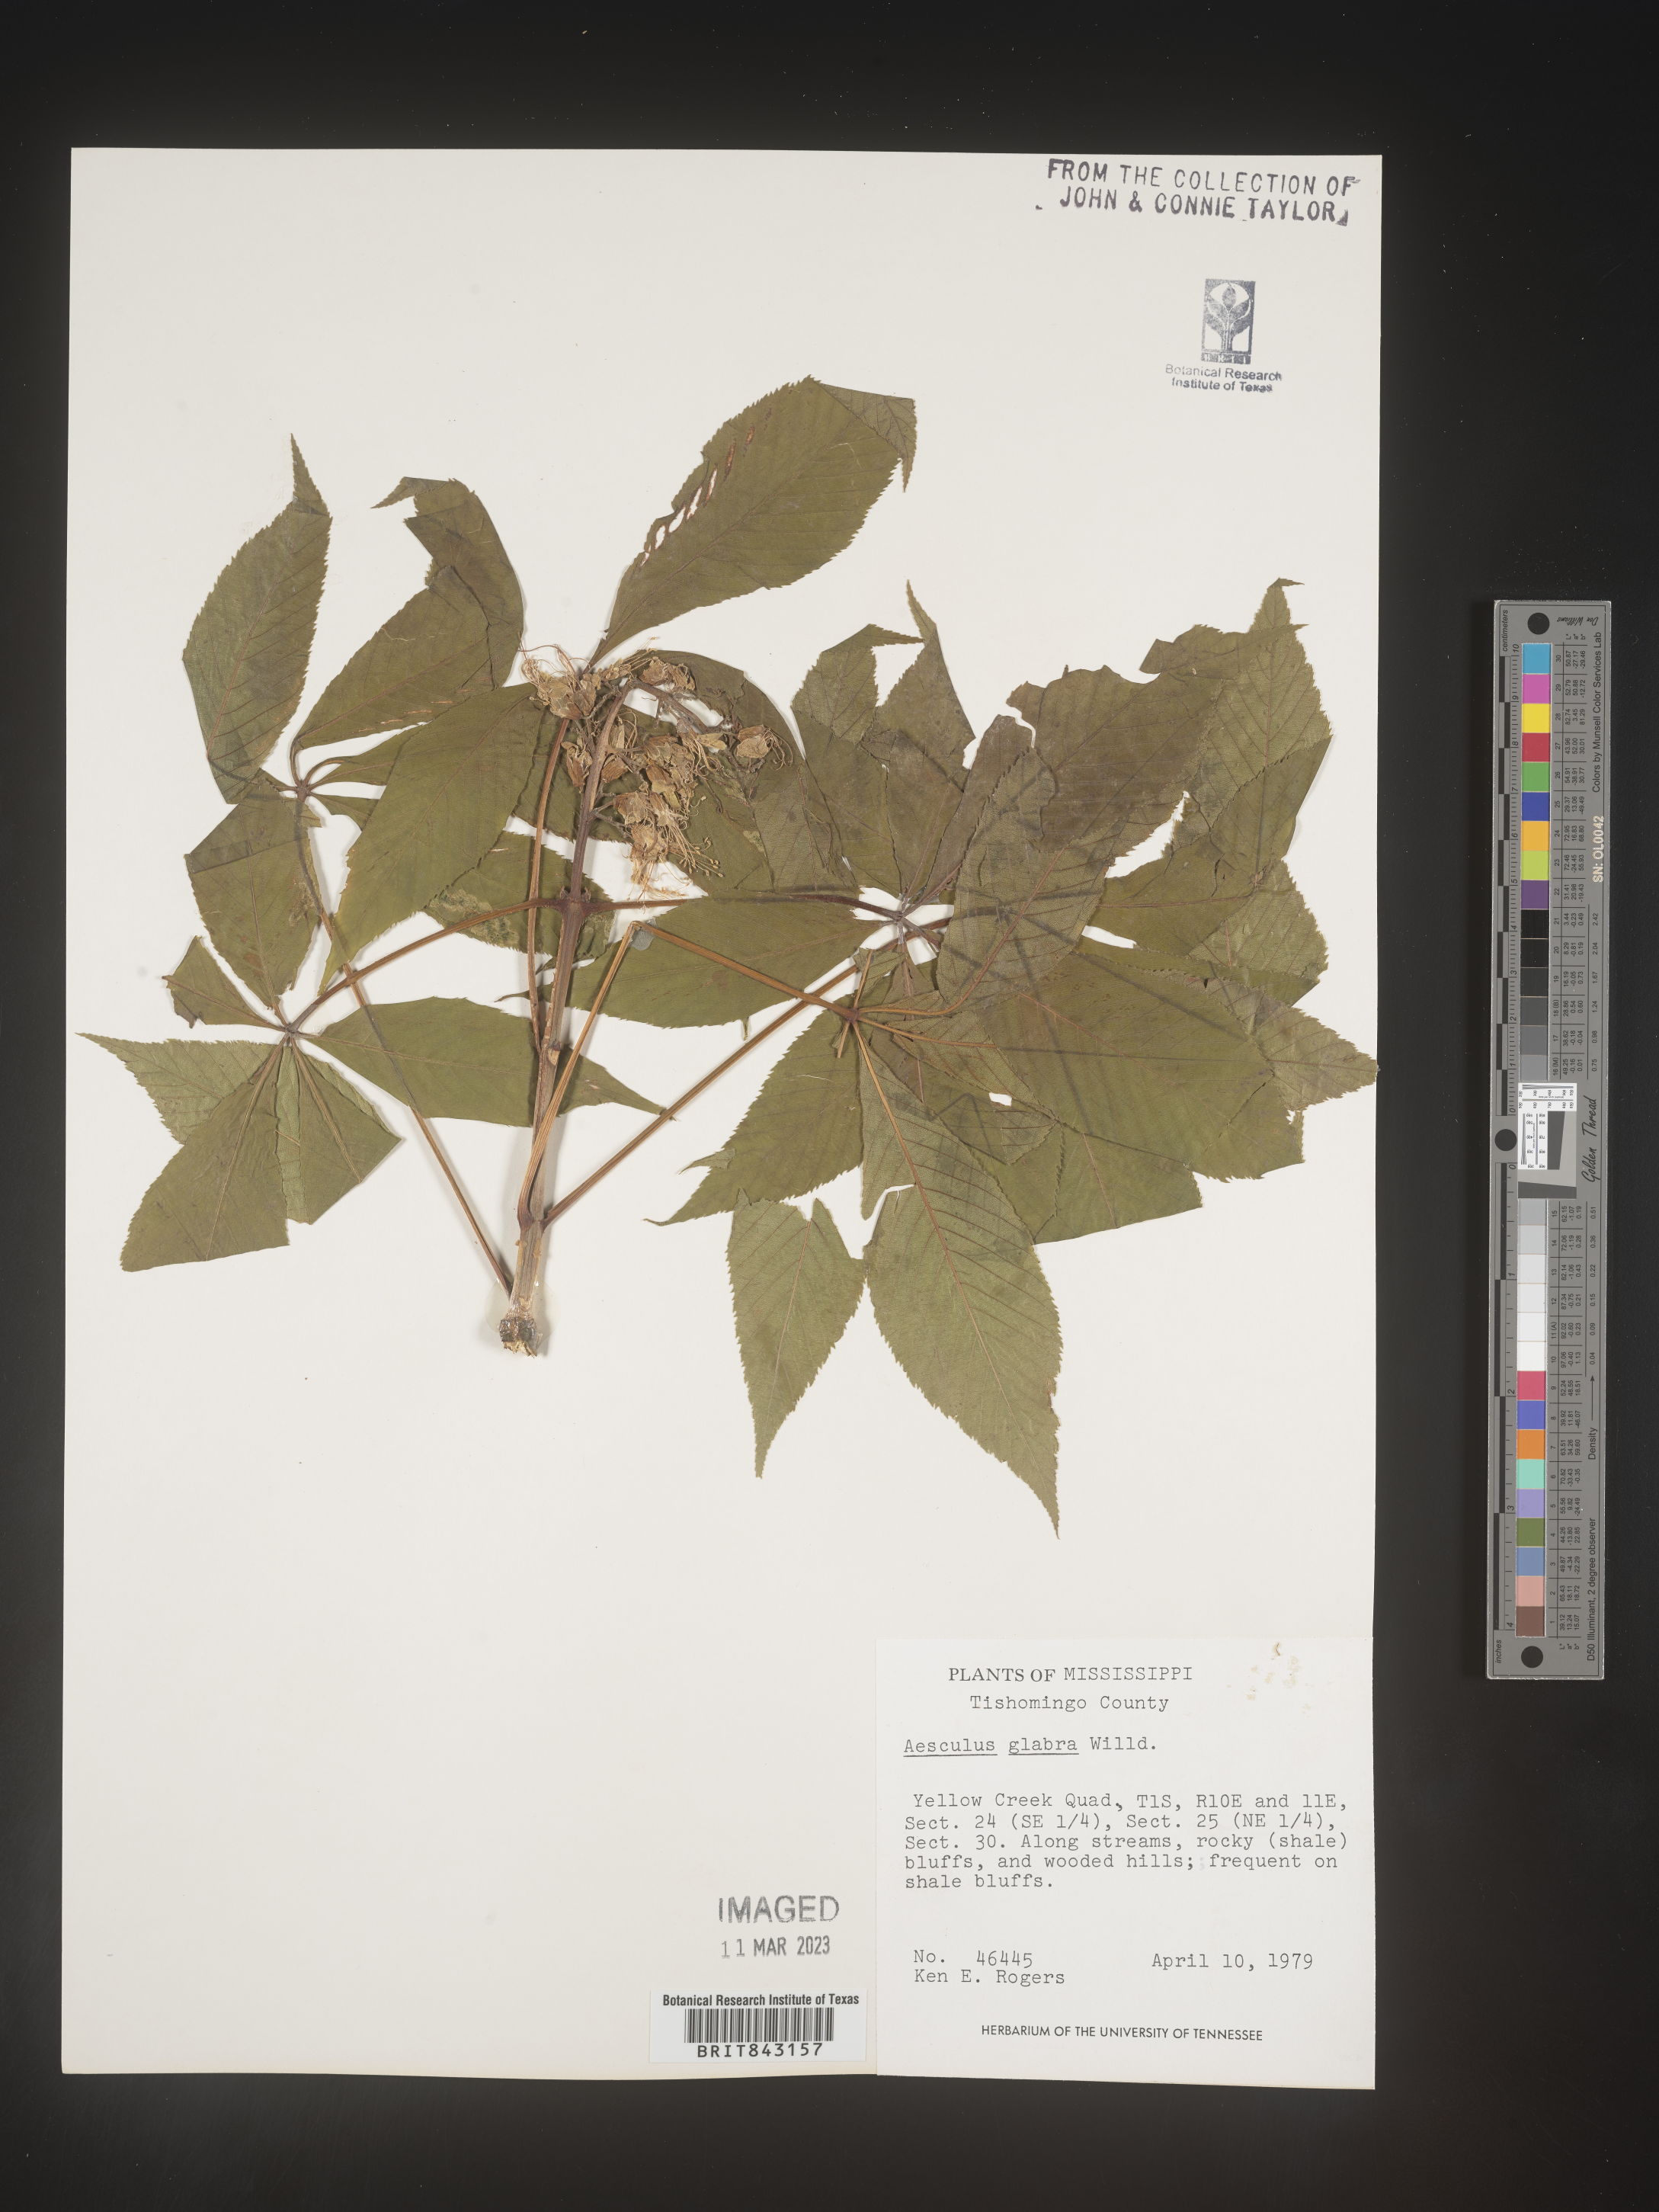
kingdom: Plantae
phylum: Tracheophyta
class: Magnoliopsida
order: Sapindales
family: Sapindaceae
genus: Aesculus
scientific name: Aesculus glabra
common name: Ohio buckeye
